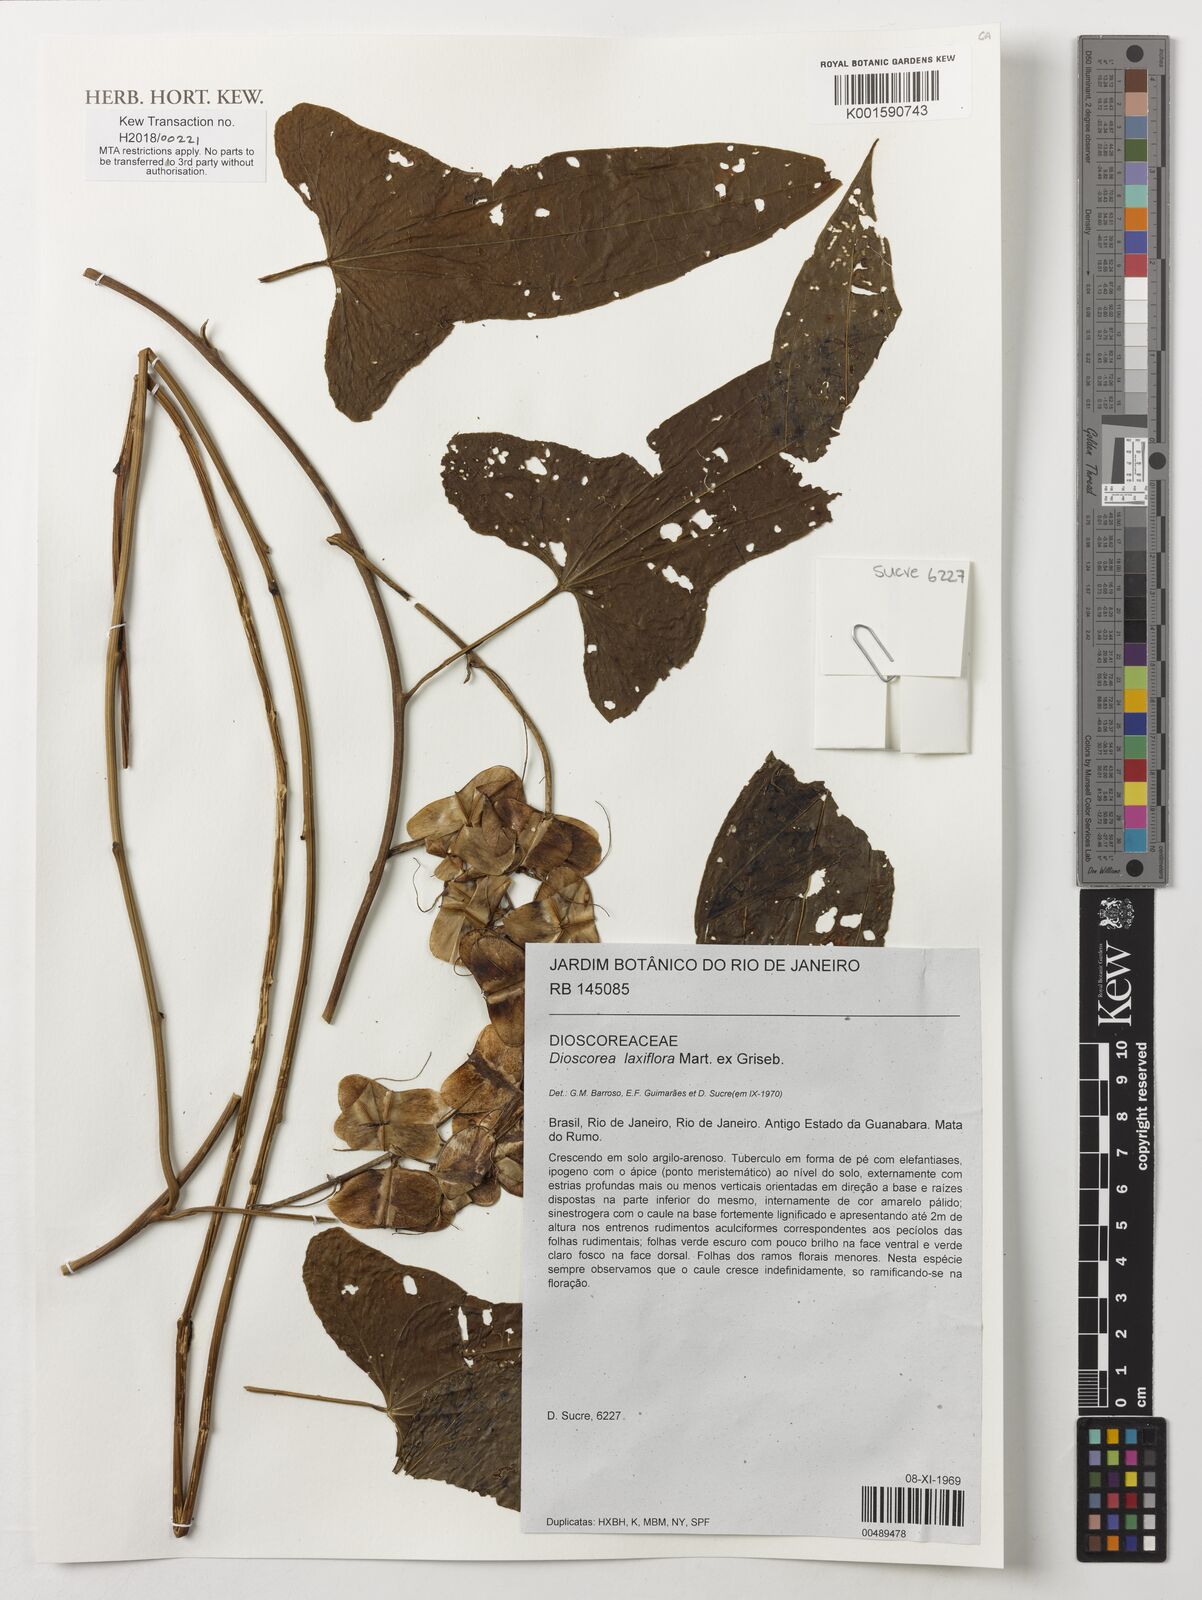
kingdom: Plantae
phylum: Tracheophyta
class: Liliopsida
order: Dioscoreales
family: Dioscoreaceae
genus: Dioscorea
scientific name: Dioscorea laxiflora
